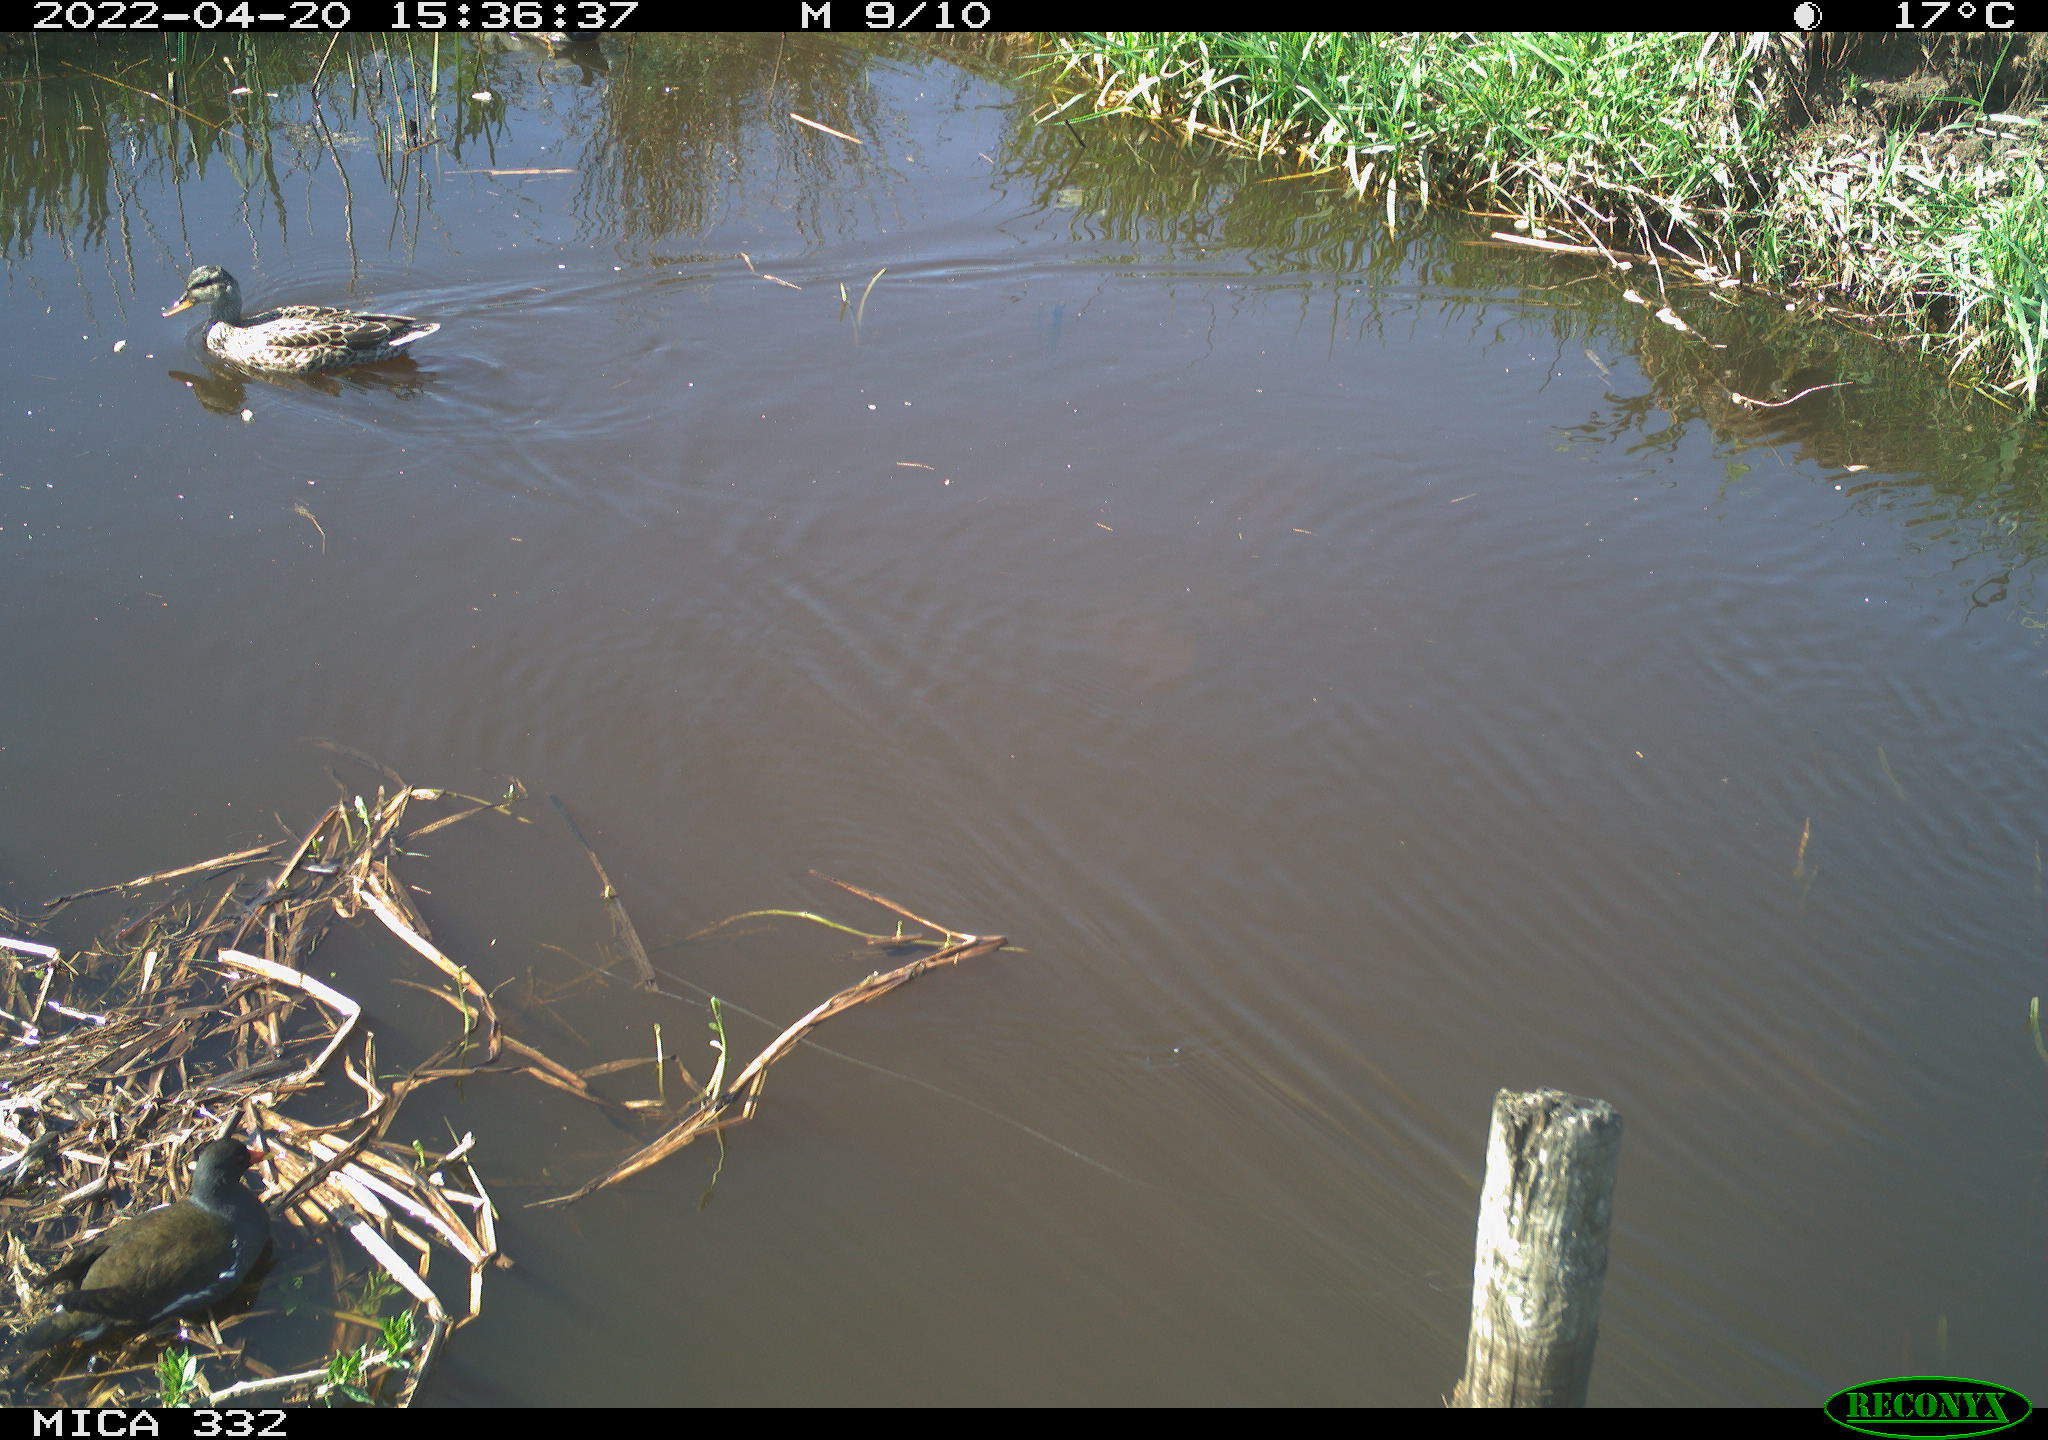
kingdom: Animalia
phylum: Chordata
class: Aves
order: Anseriformes
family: Anatidae
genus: Anas
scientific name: Anas platyrhynchos
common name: Mallard
